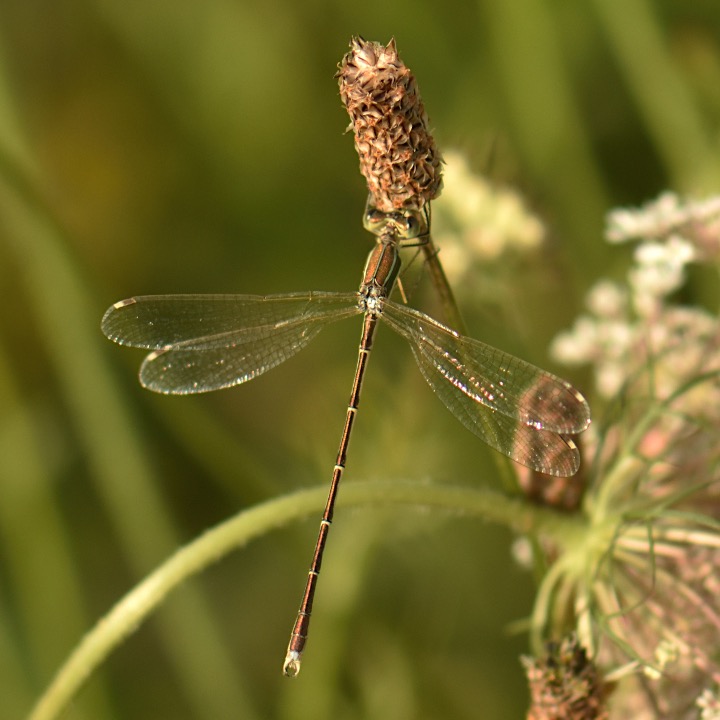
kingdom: Animalia
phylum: Arthropoda
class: Insecta
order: Odonata
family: Lestidae
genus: Lestes
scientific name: Lestes barbarus
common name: Sydlig kobbervandnymfe
